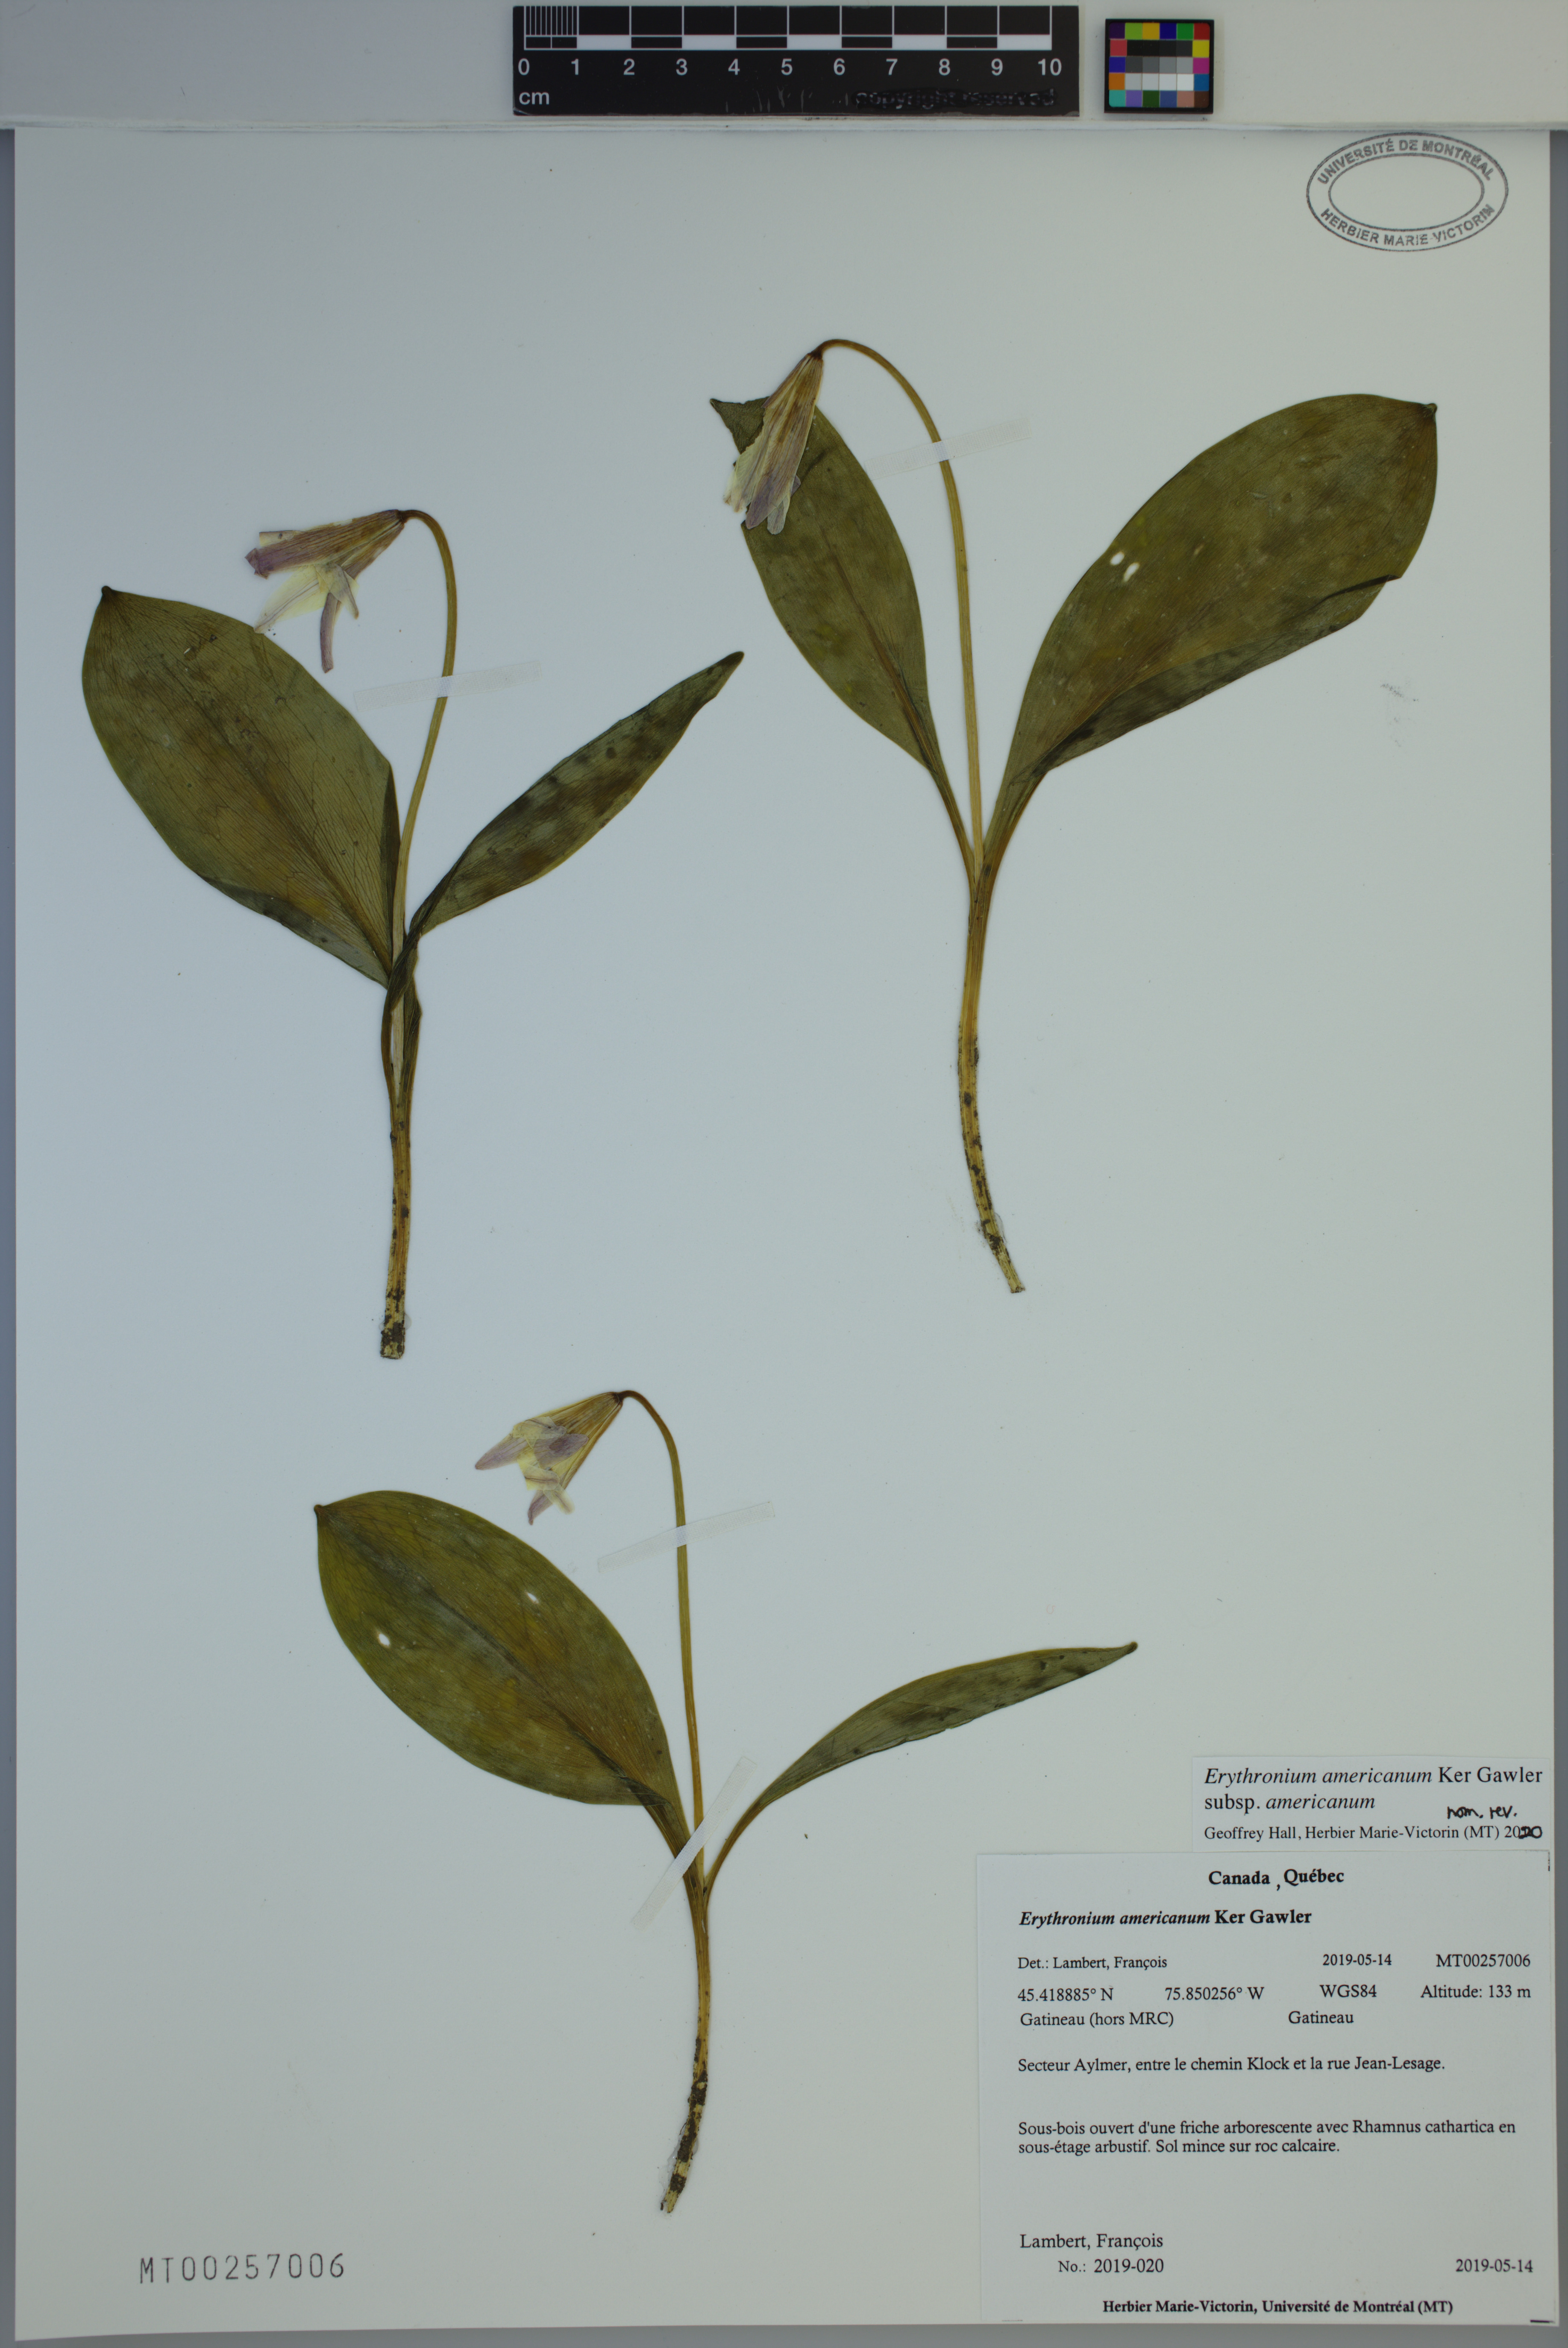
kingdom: Plantae
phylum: Tracheophyta
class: Liliopsida
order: Liliales
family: Liliaceae
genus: Erythronium
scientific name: Erythronium americanum
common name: Yellow adder's-tongue
